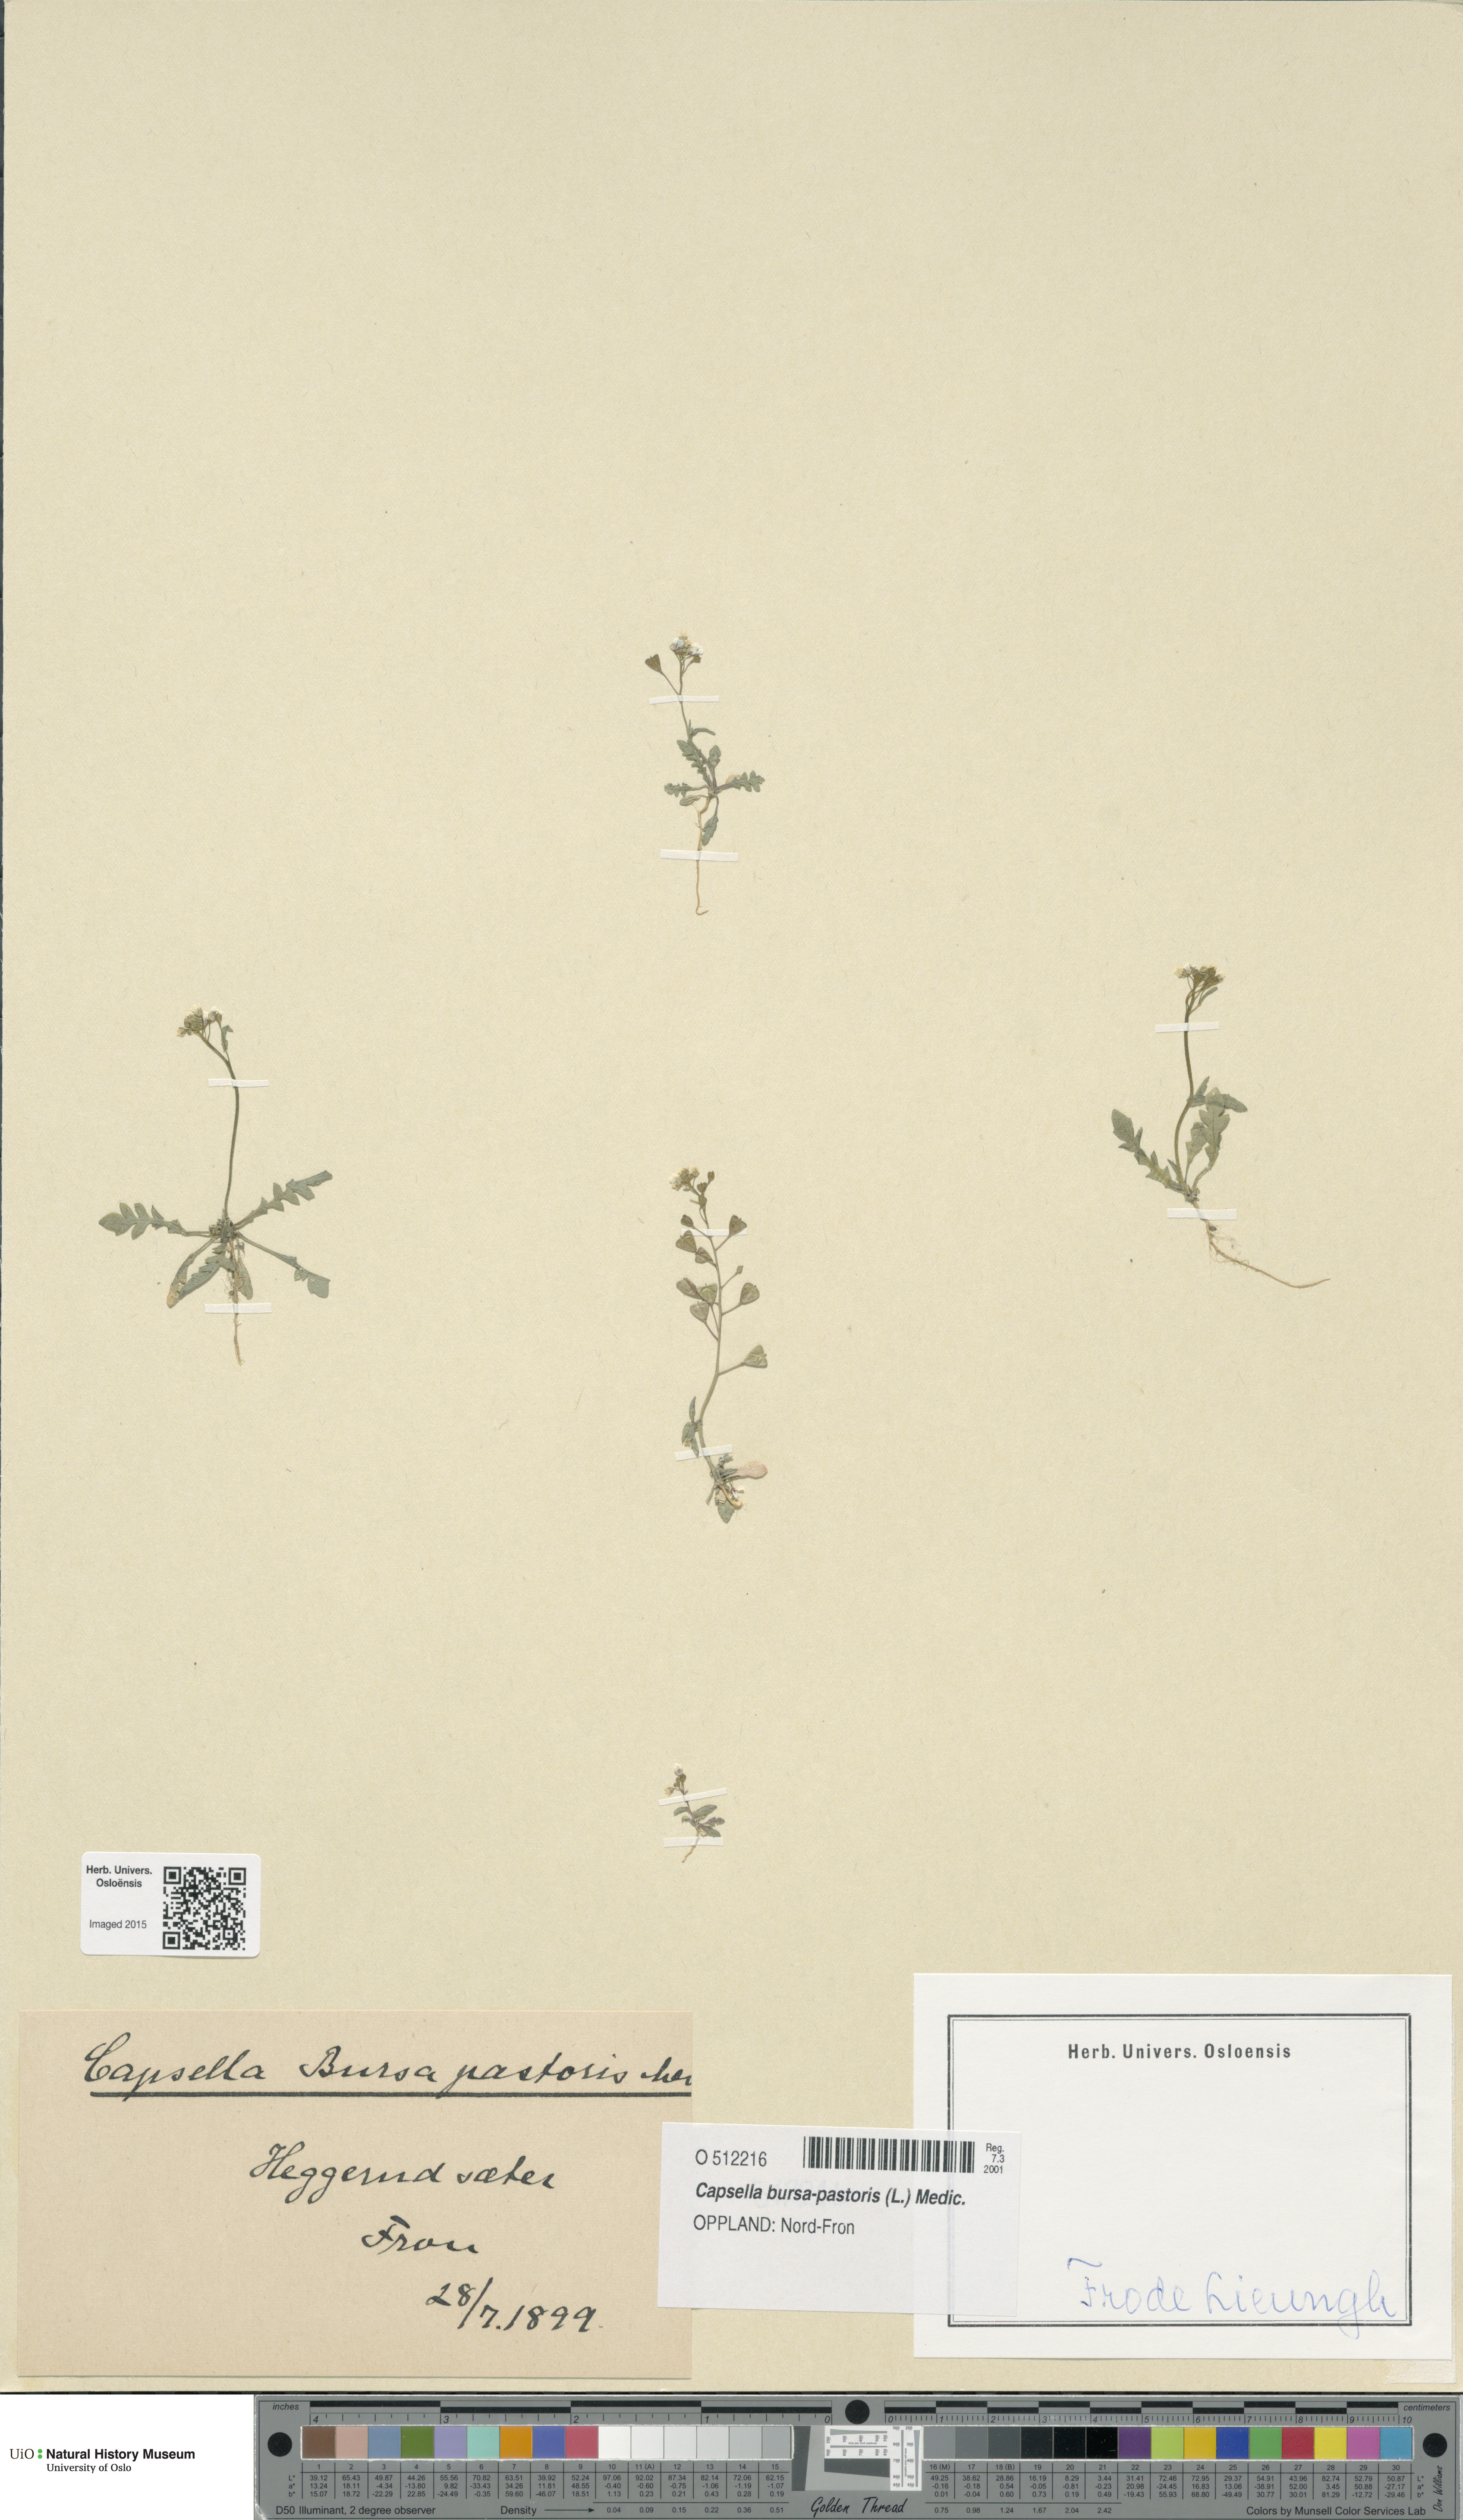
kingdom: Plantae
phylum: Tracheophyta
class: Magnoliopsida
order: Brassicales
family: Brassicaceae
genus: Capsella
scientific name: Capsella bursa-pastoris
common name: Shepherd's purse
